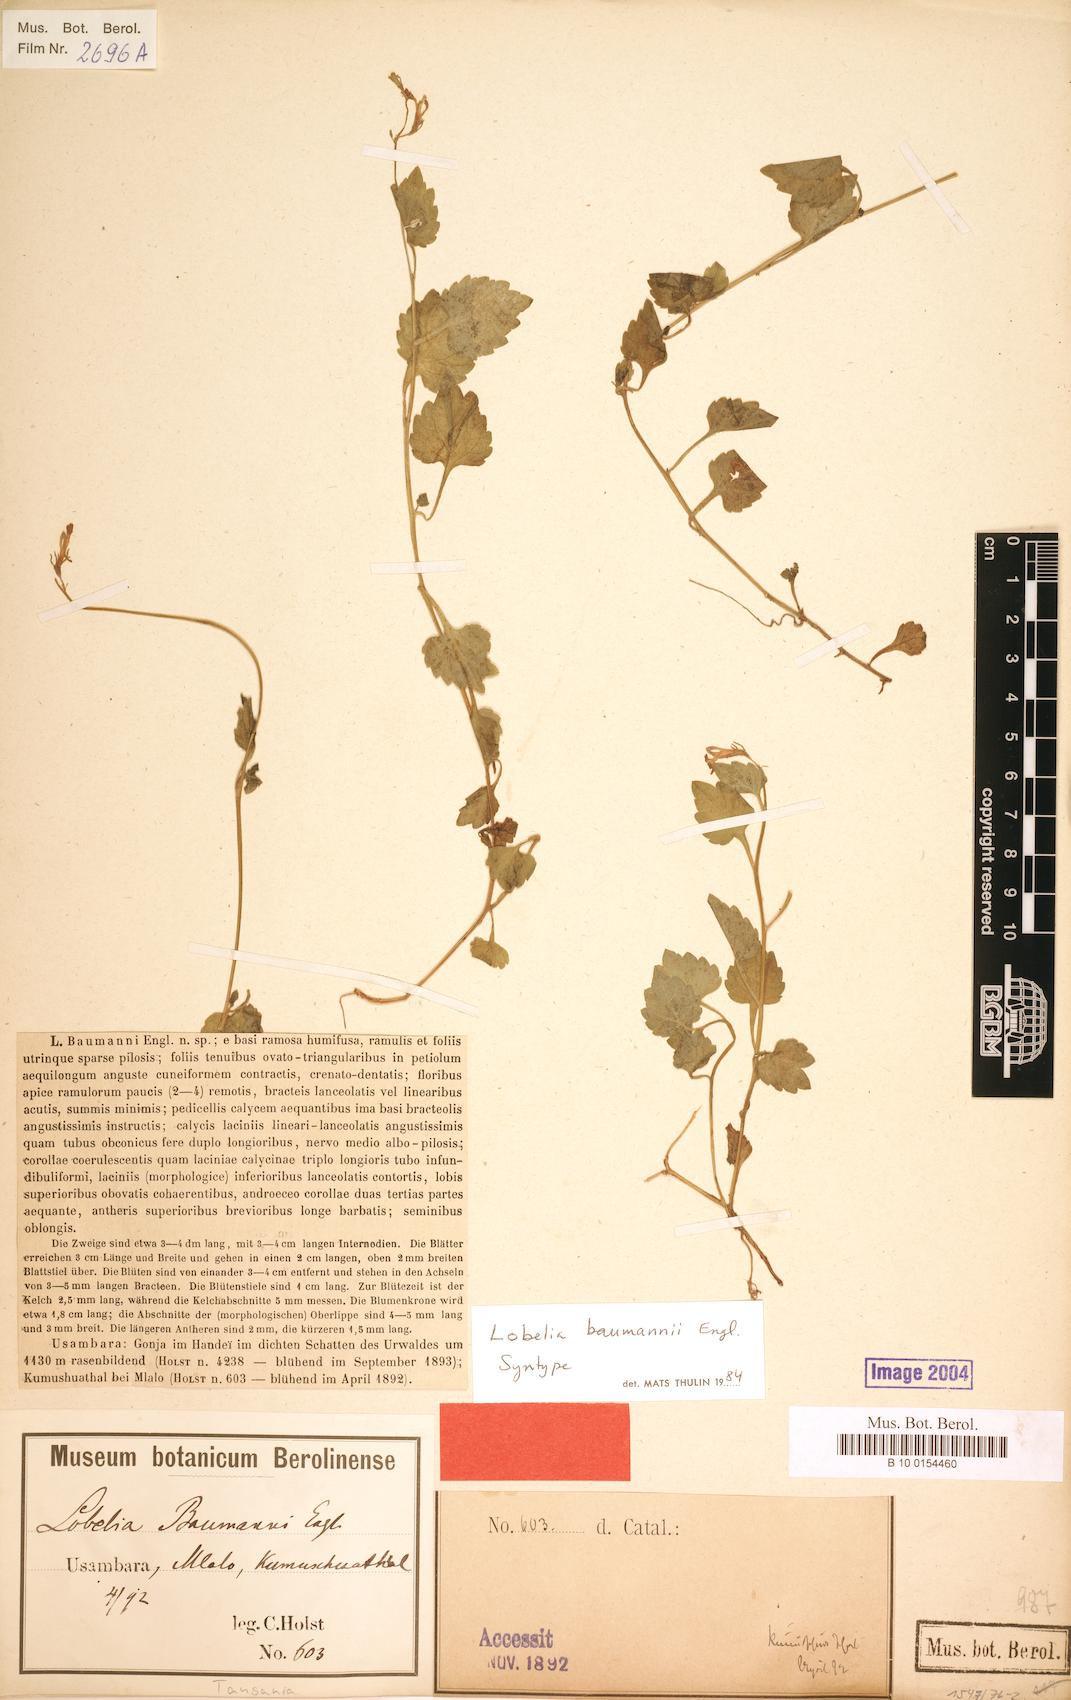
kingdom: Plantae
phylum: Tracheophyta
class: Magnoliopsida
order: Asterales
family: Campanulaceae
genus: Lobelia
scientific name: Lobelia baumannii
